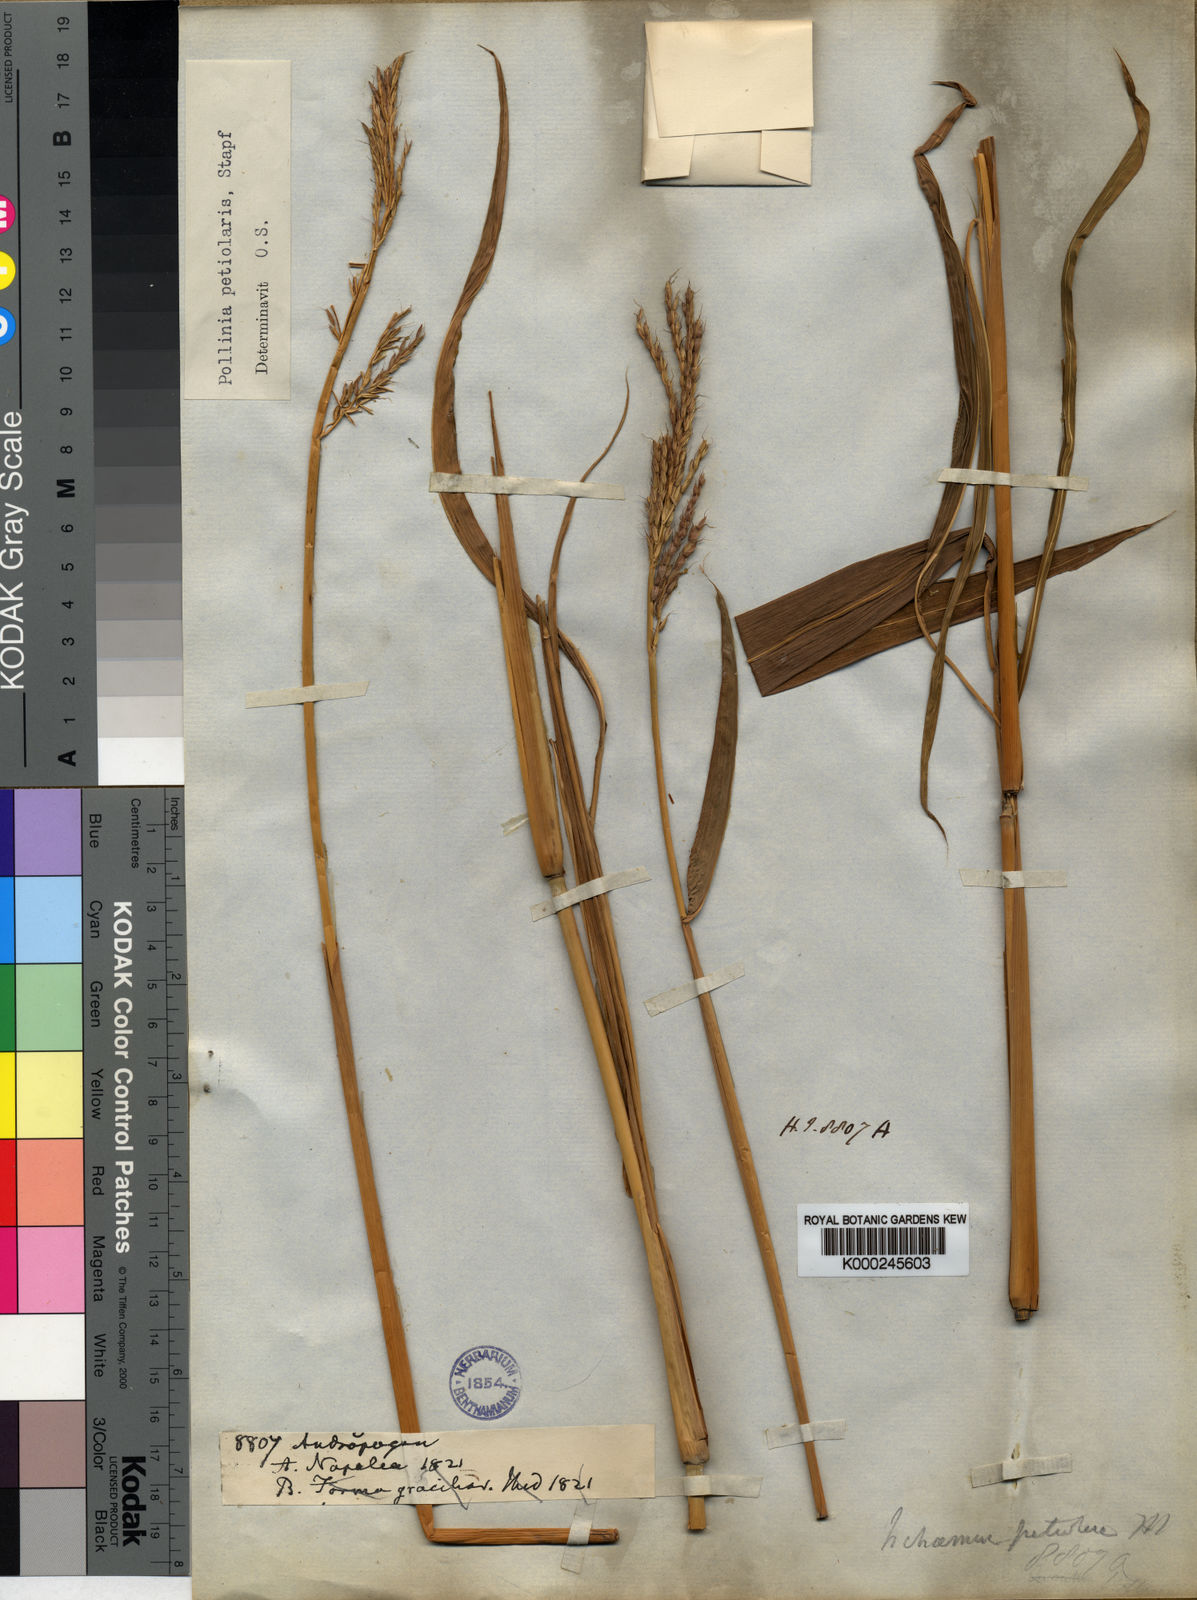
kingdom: Plantae
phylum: Tracheophyta
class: Liliopsida
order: Poales
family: Poaceae
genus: Microstegium
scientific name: Microstegium petiolare
